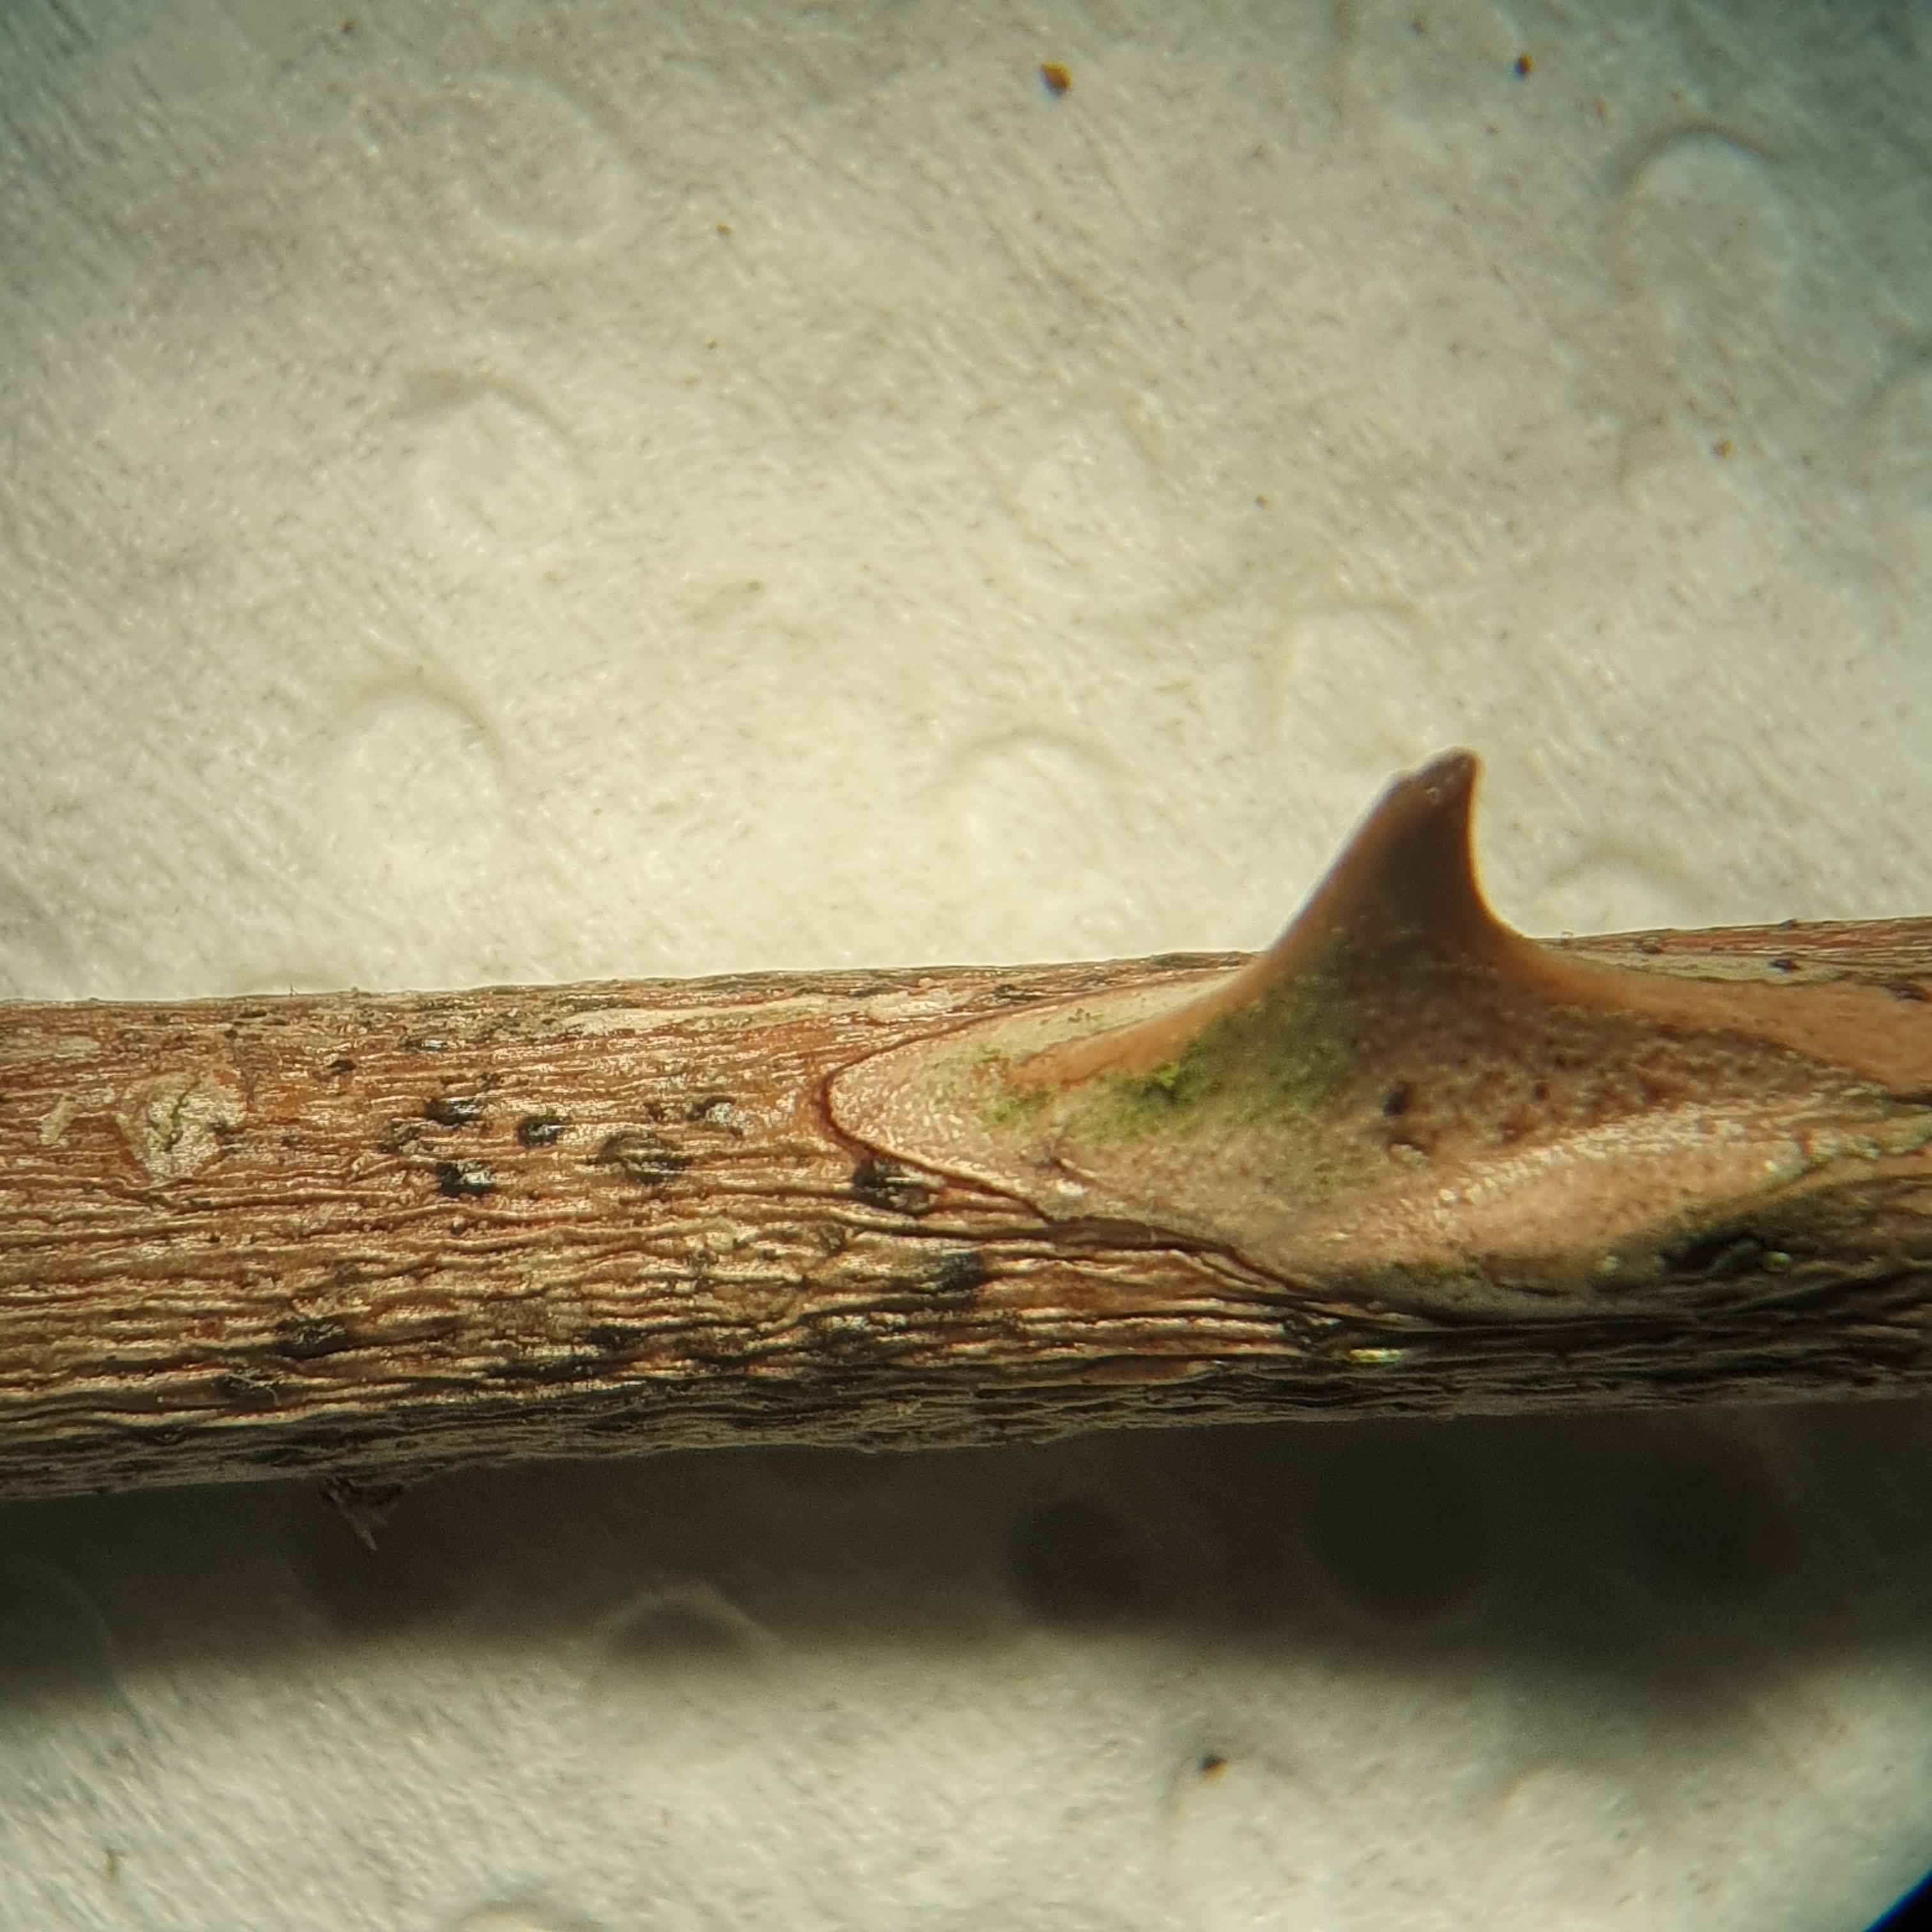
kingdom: Fungi
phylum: Ascomycota
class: Sordariomycetes
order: Amphisphaeriales
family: Sporocadaceae
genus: Discostroma
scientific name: Discostroma corticola
